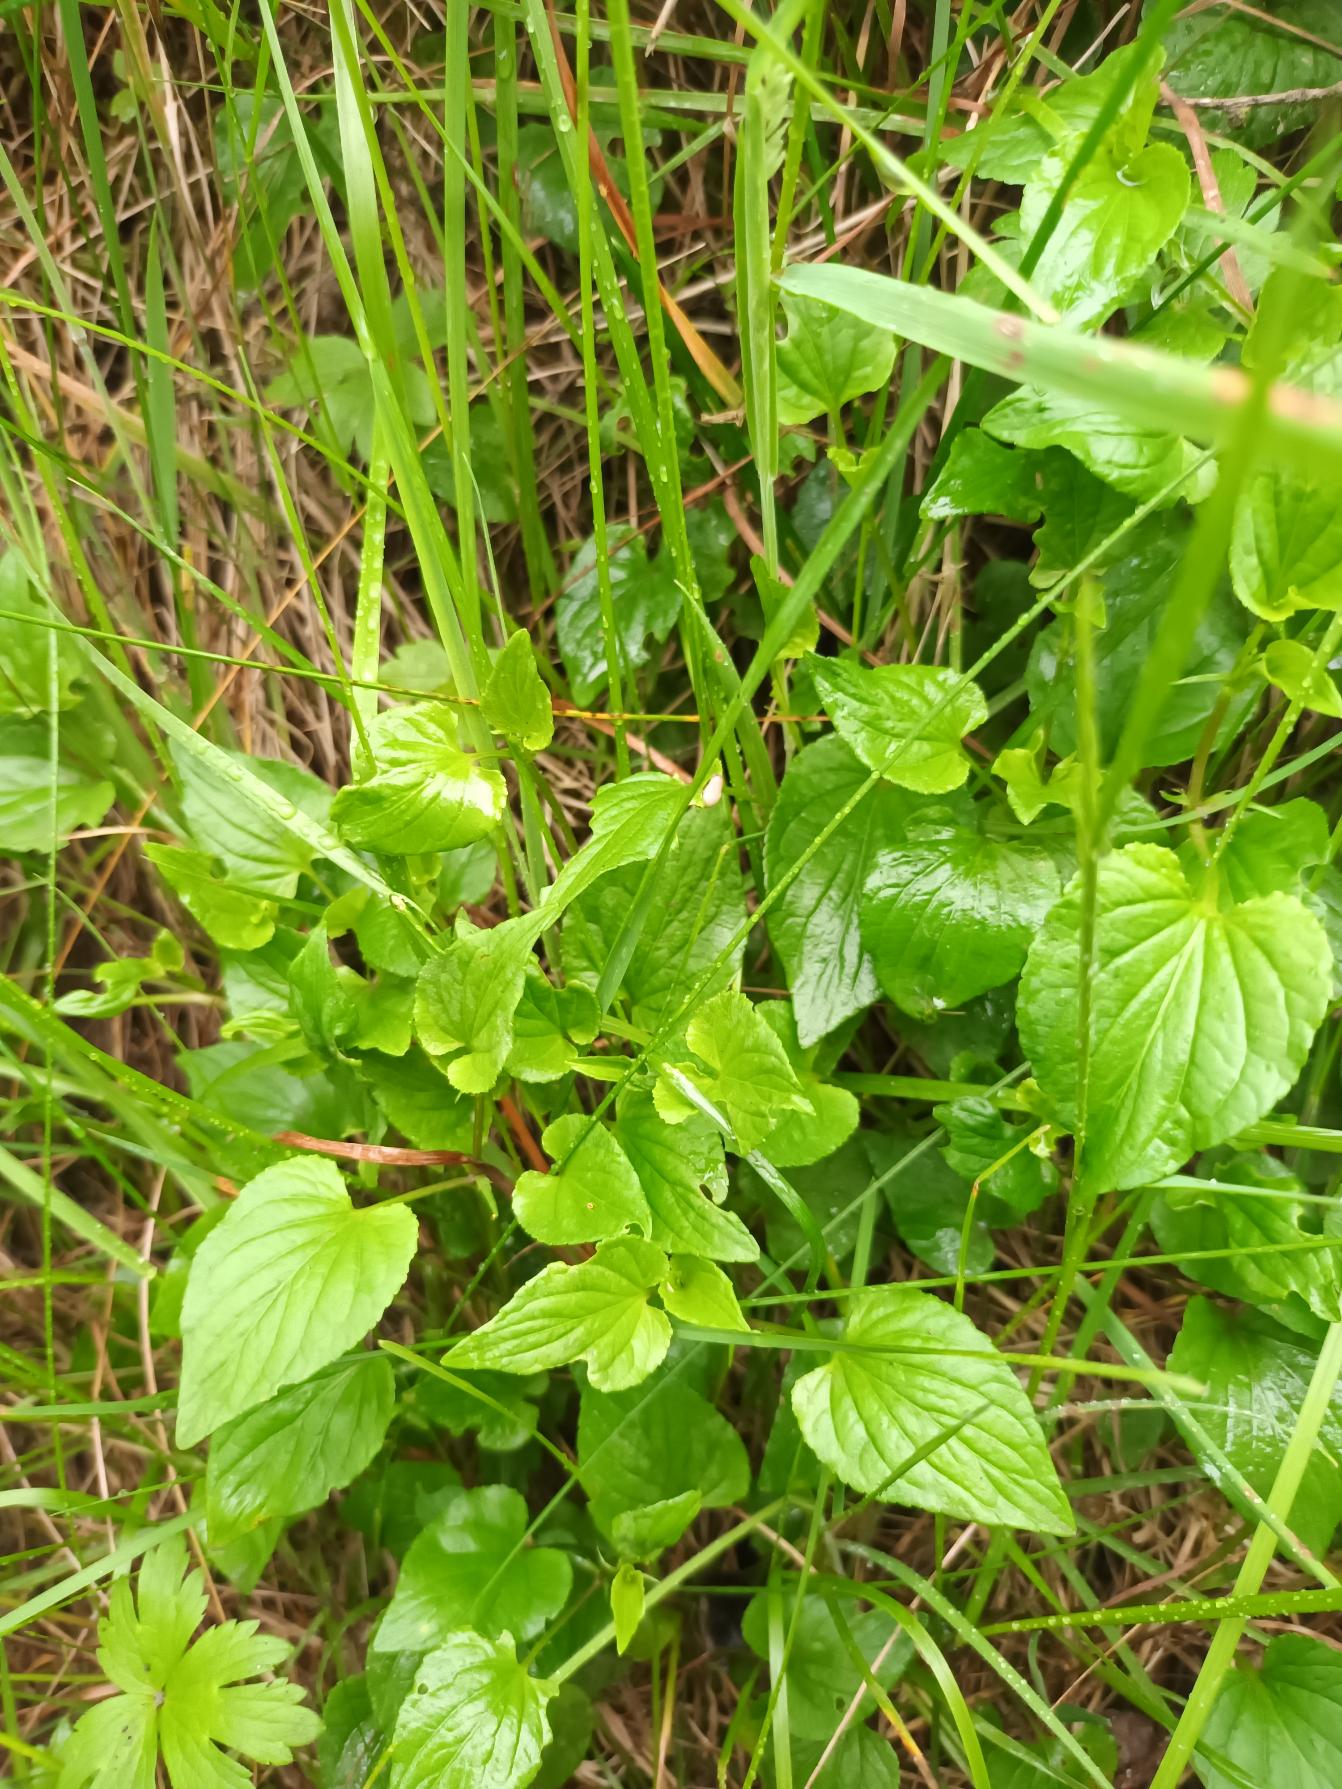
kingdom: Plantae
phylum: Tracheophyta
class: Magnoliopsida
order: Malpighiales
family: Violaceae
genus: Viola
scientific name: Viola canina
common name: Hunde-viol
